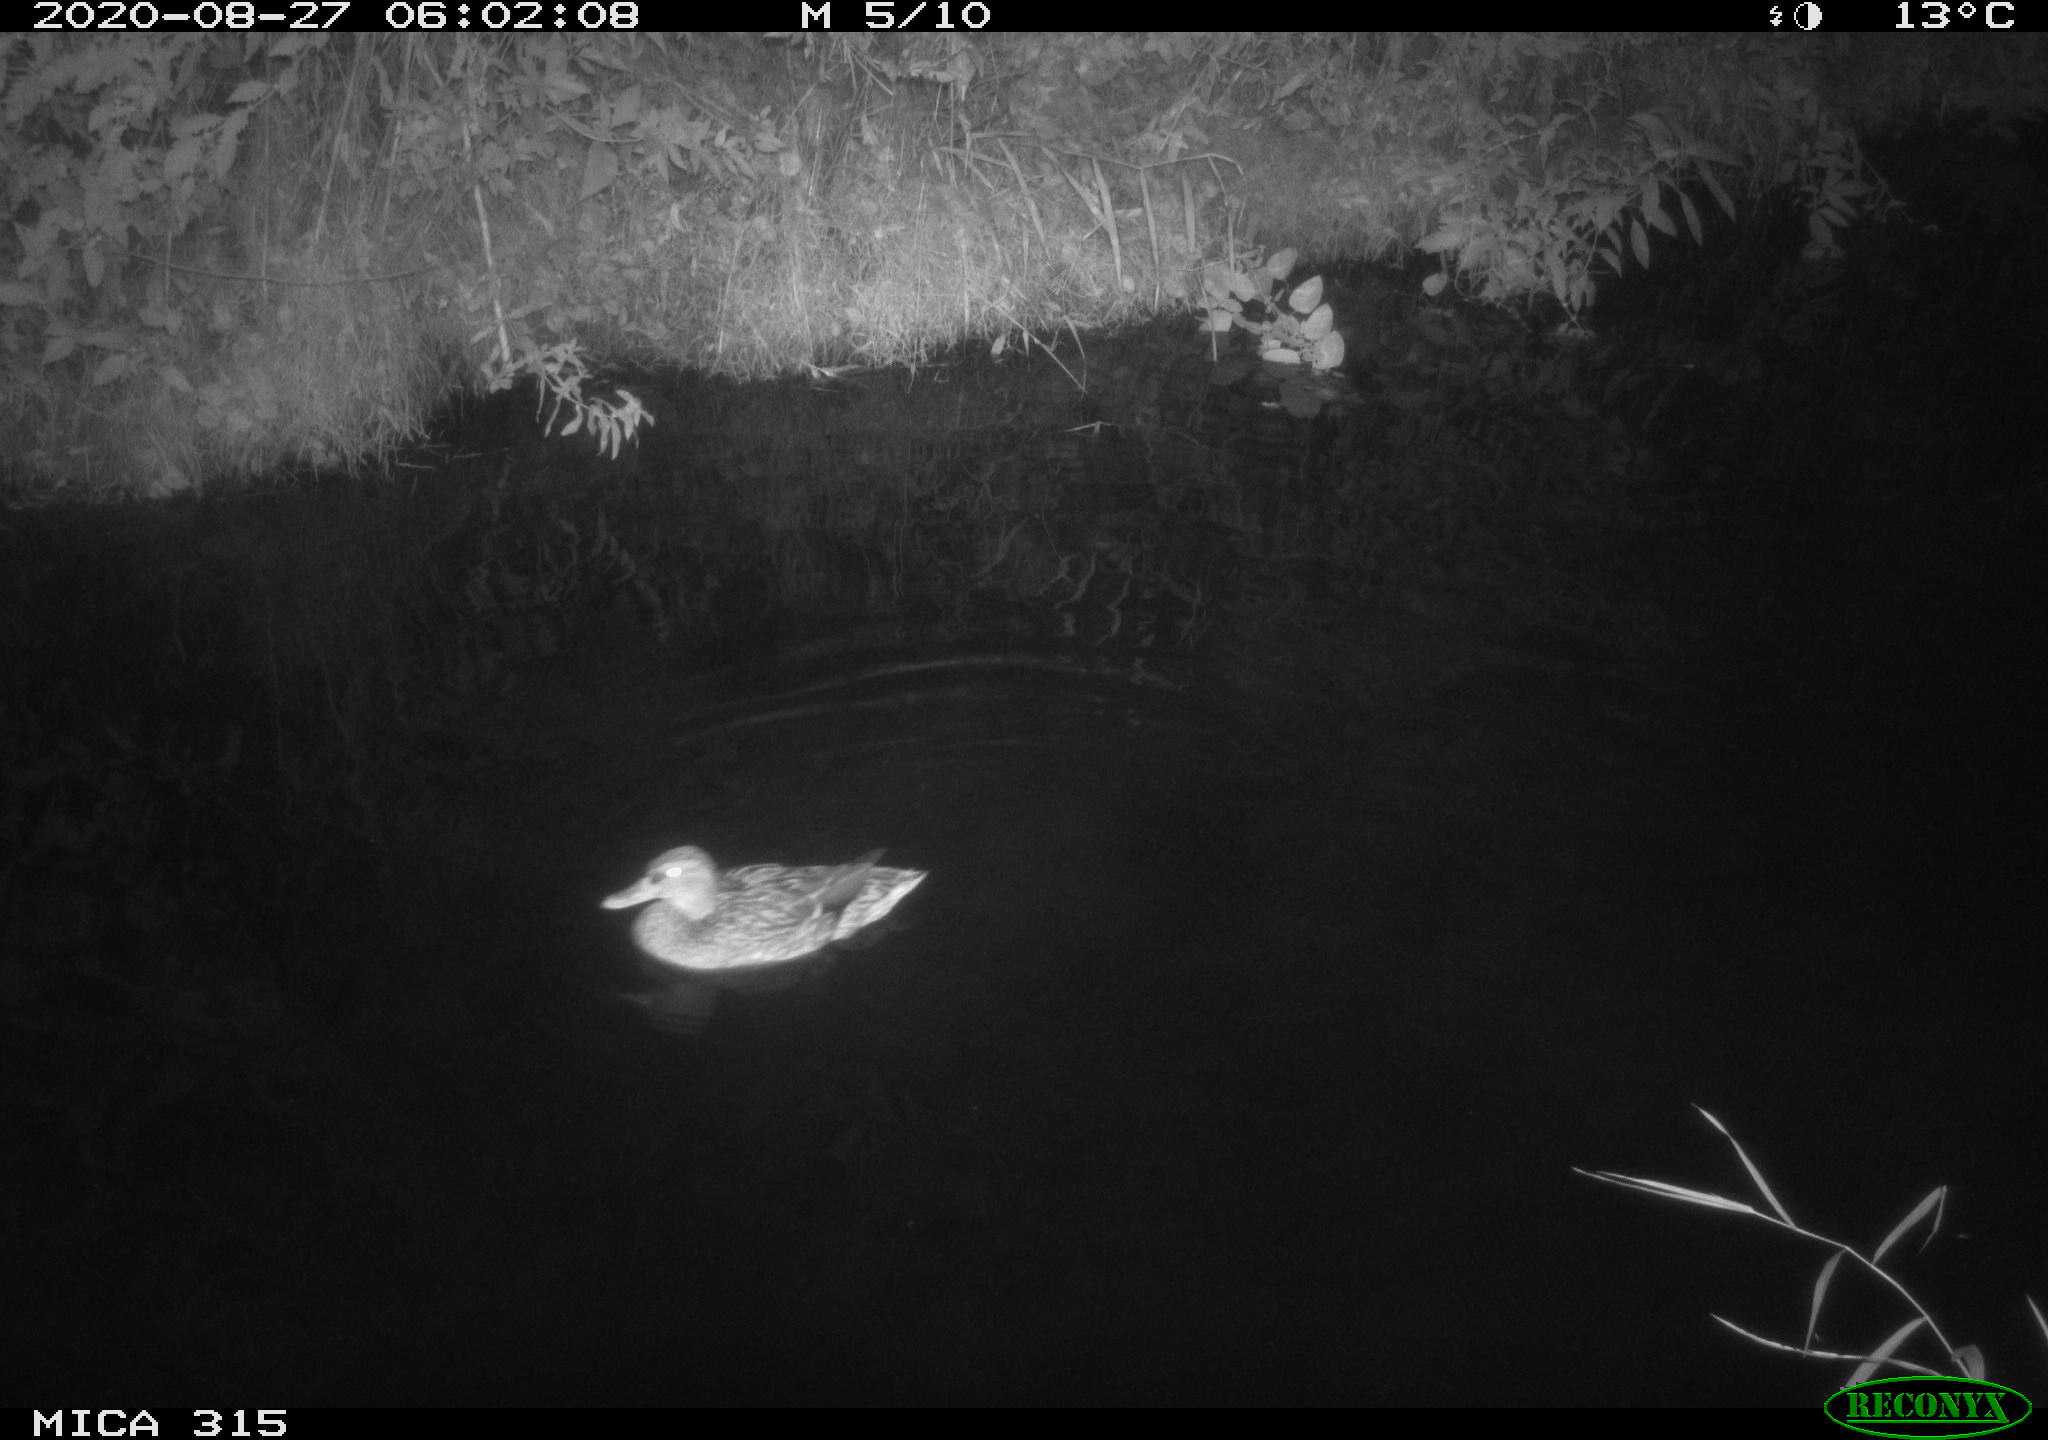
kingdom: Animalia
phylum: Chordata
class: Aves
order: Anseriformes
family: Anatidae
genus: Anas
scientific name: Anas platyrhynchos
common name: Mallard
